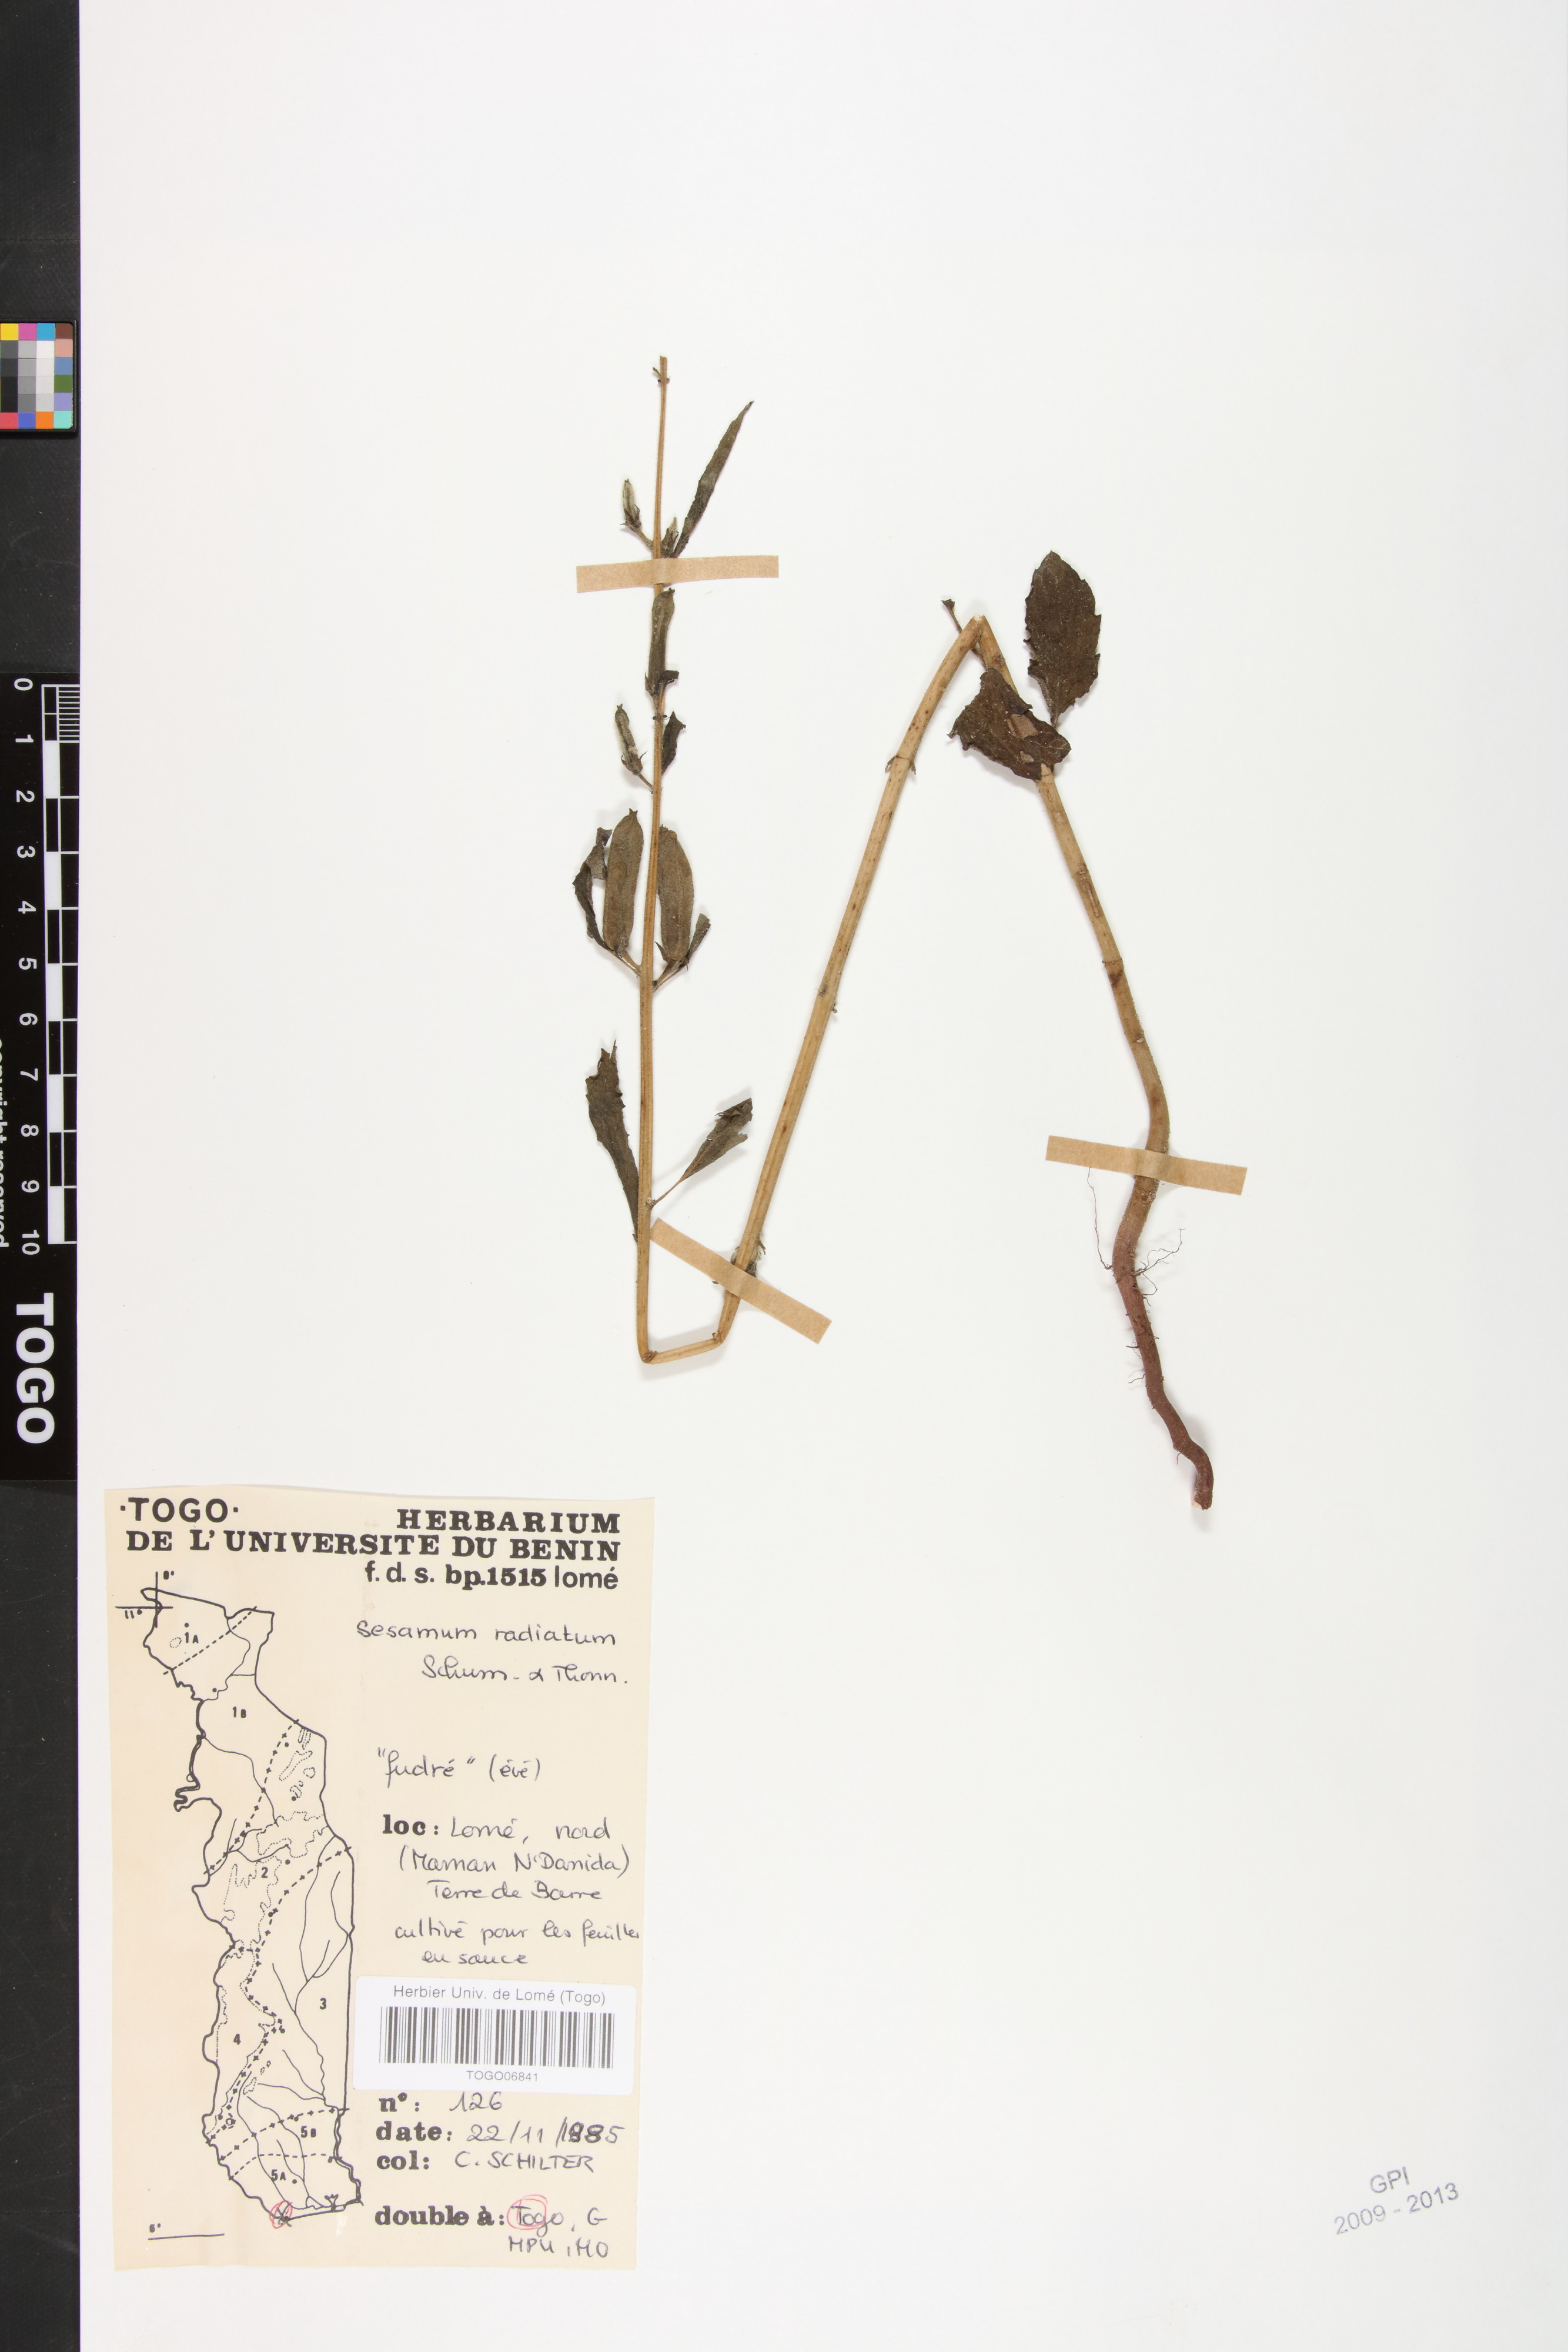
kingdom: Plantae
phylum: Tracheophyta
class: Magnoliopsida
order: Lamiales
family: Pedaliaceae
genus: Sesamum
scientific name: Sesamum radiatum
